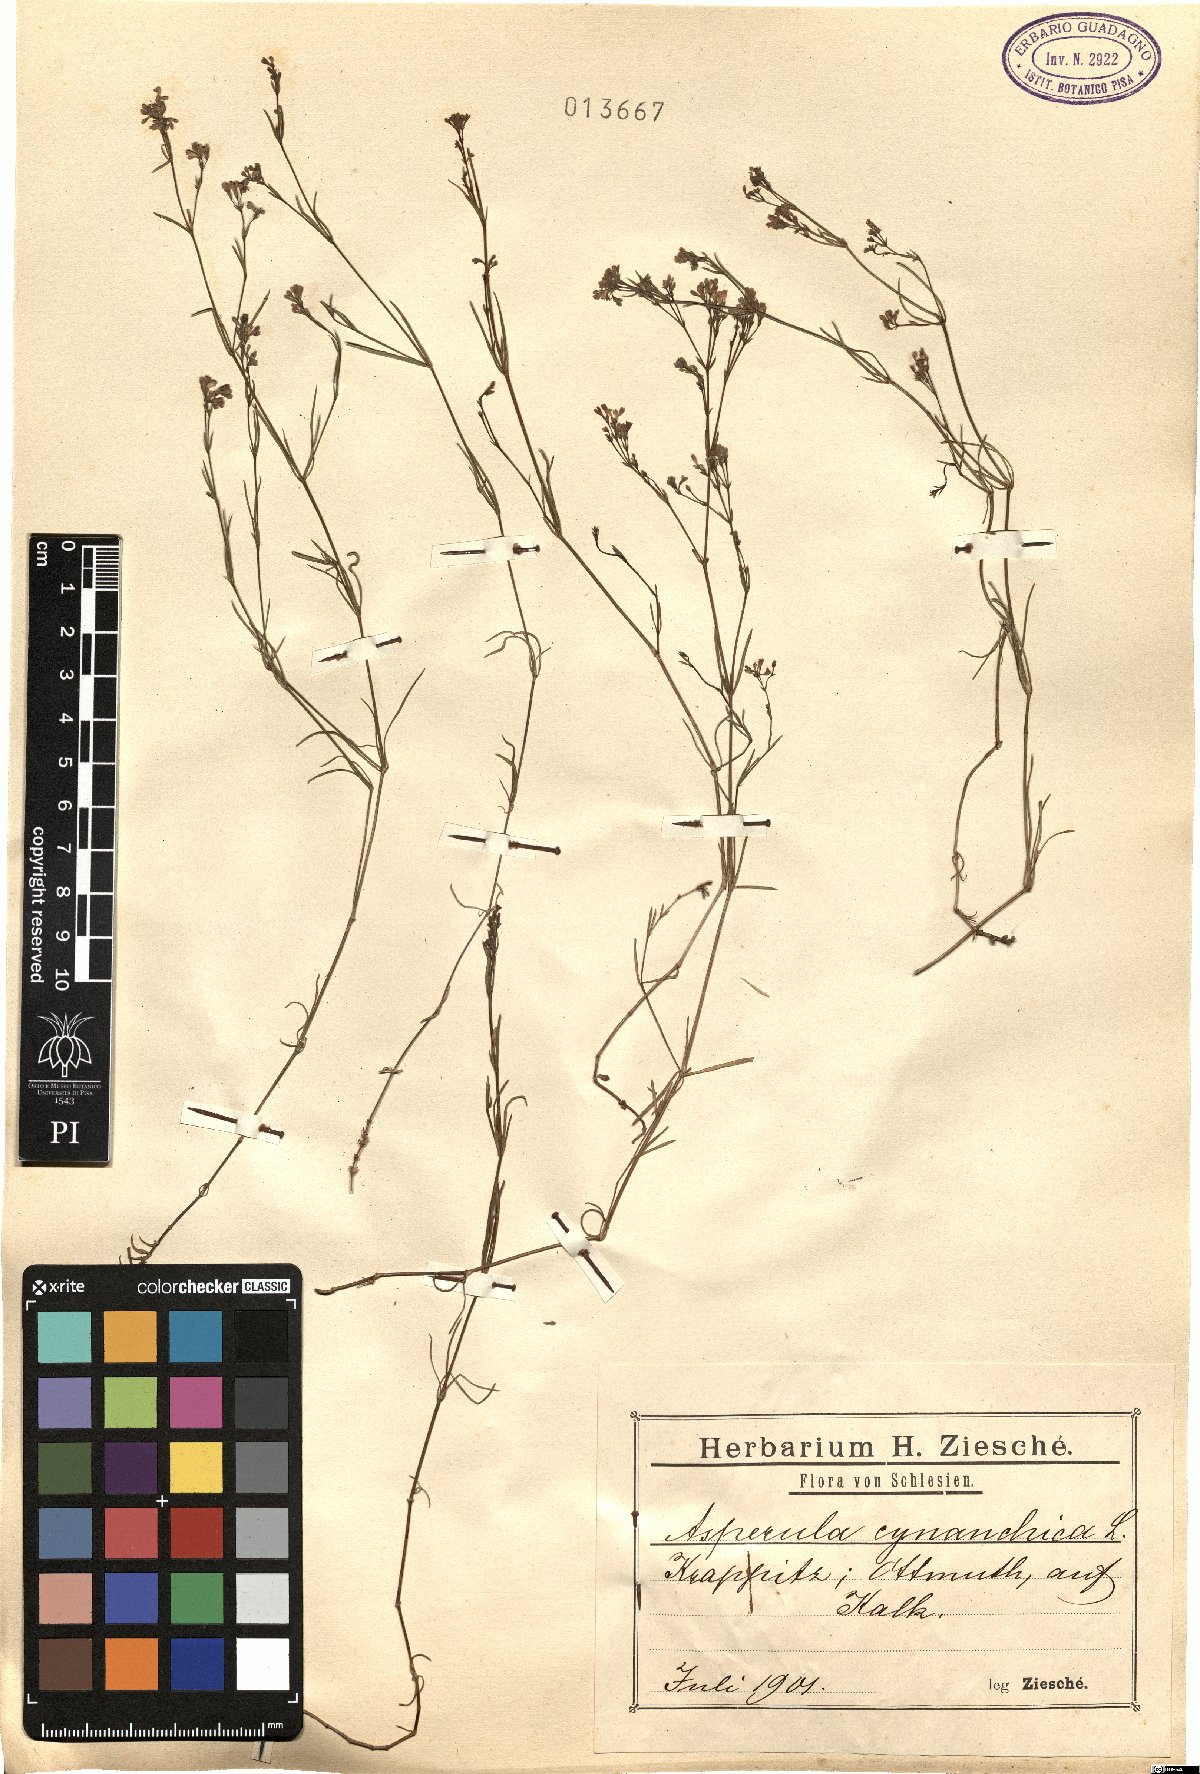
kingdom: Plantae
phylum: Tracheophyta
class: Magnoliopsida
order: Gentianales
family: Rubiaceae
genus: Cynanchica
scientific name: Cynanchica pyrenaica
